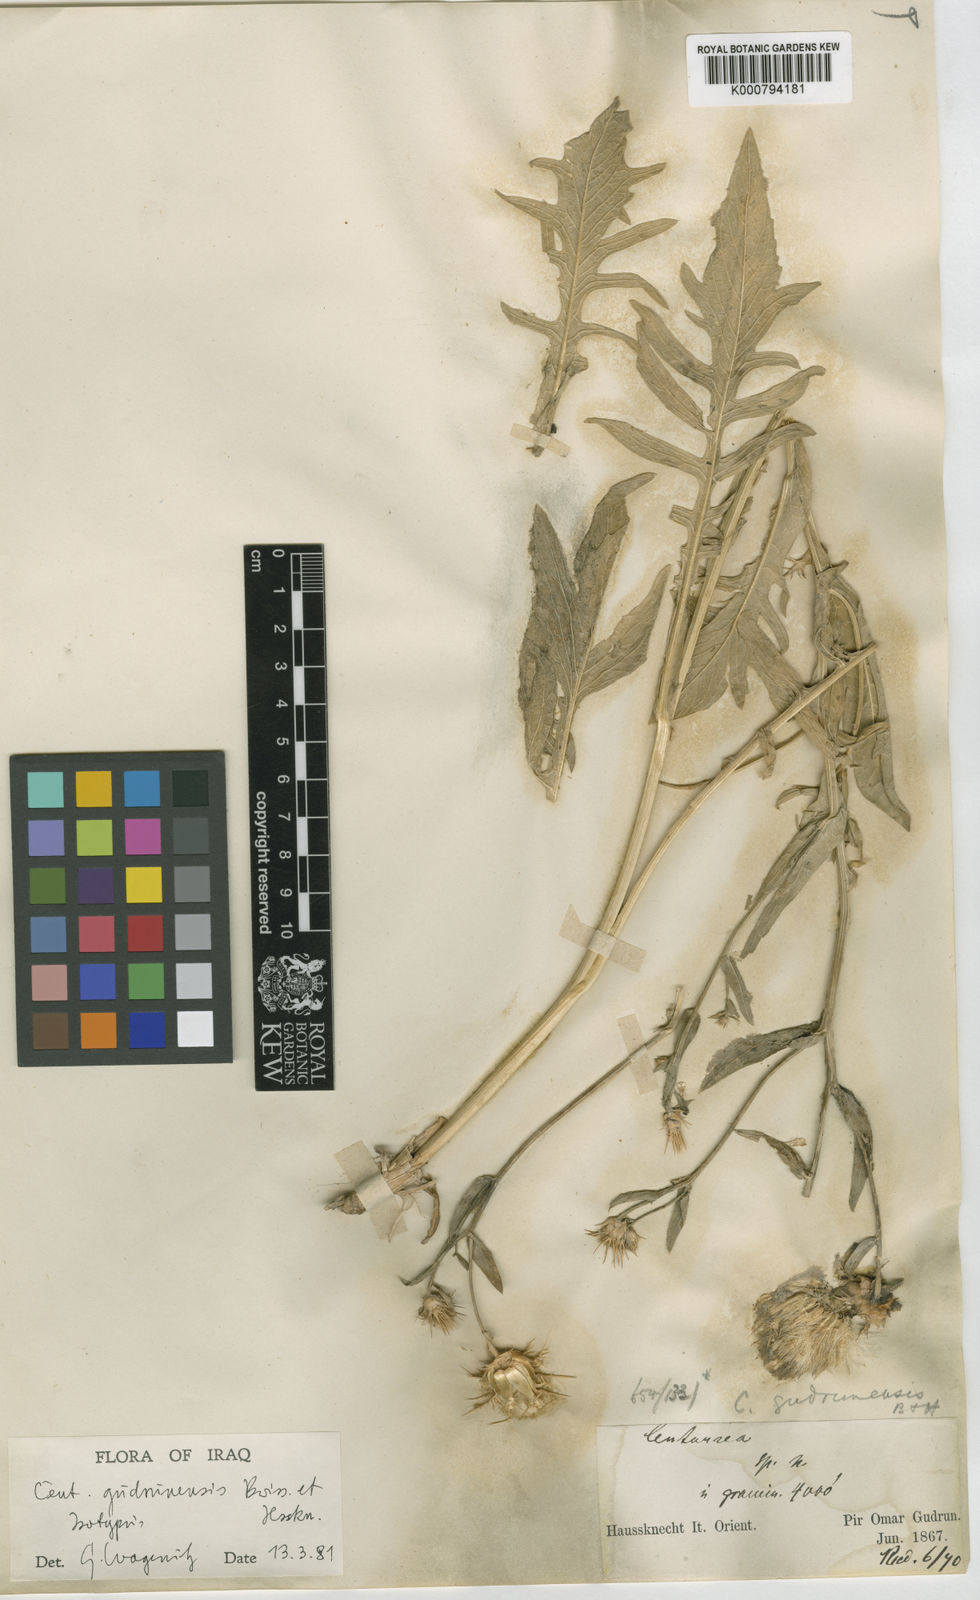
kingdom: Plantae
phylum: Tracheophyta
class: Magnoliopsida
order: Asterales
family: Asteraceae
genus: Centaurea
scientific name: Centaurea gudrunensis
